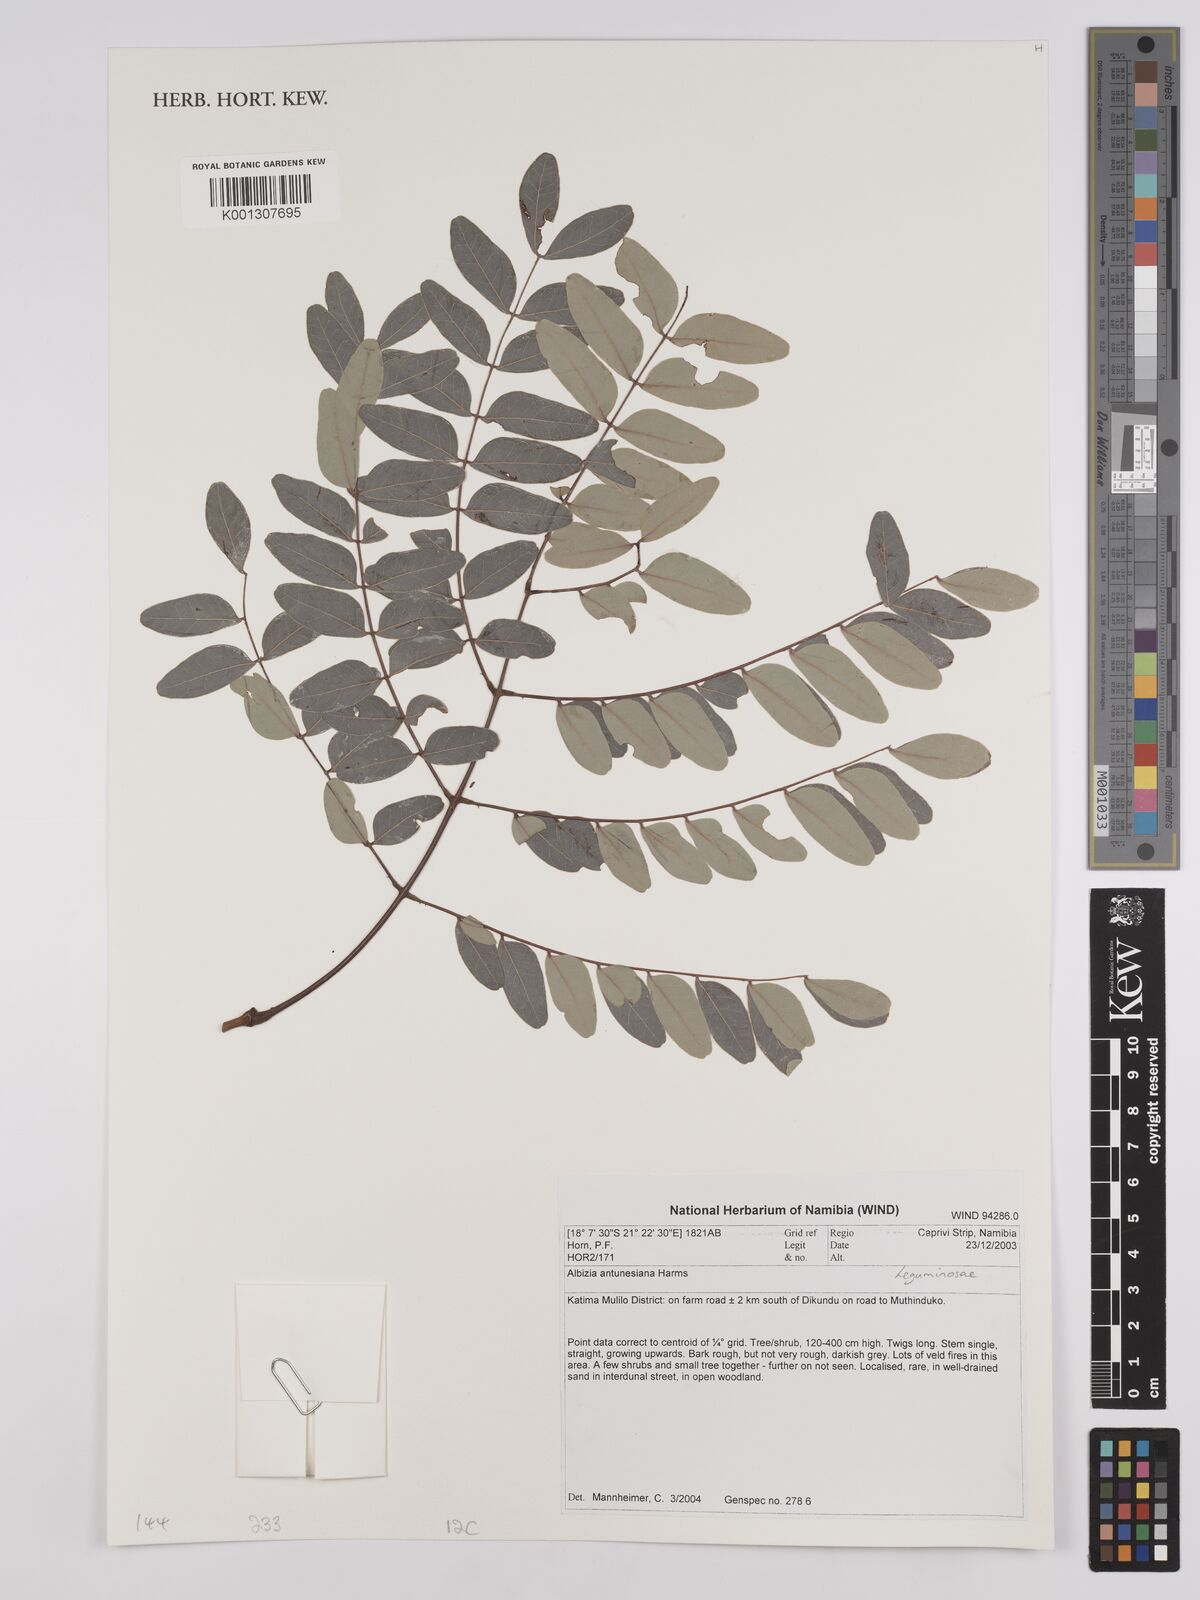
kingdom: Plantae
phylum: Tracheophyta
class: Magnoliopsida
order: Fabales
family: Fabaceae
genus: Albizia
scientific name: Albizia antunesiana
